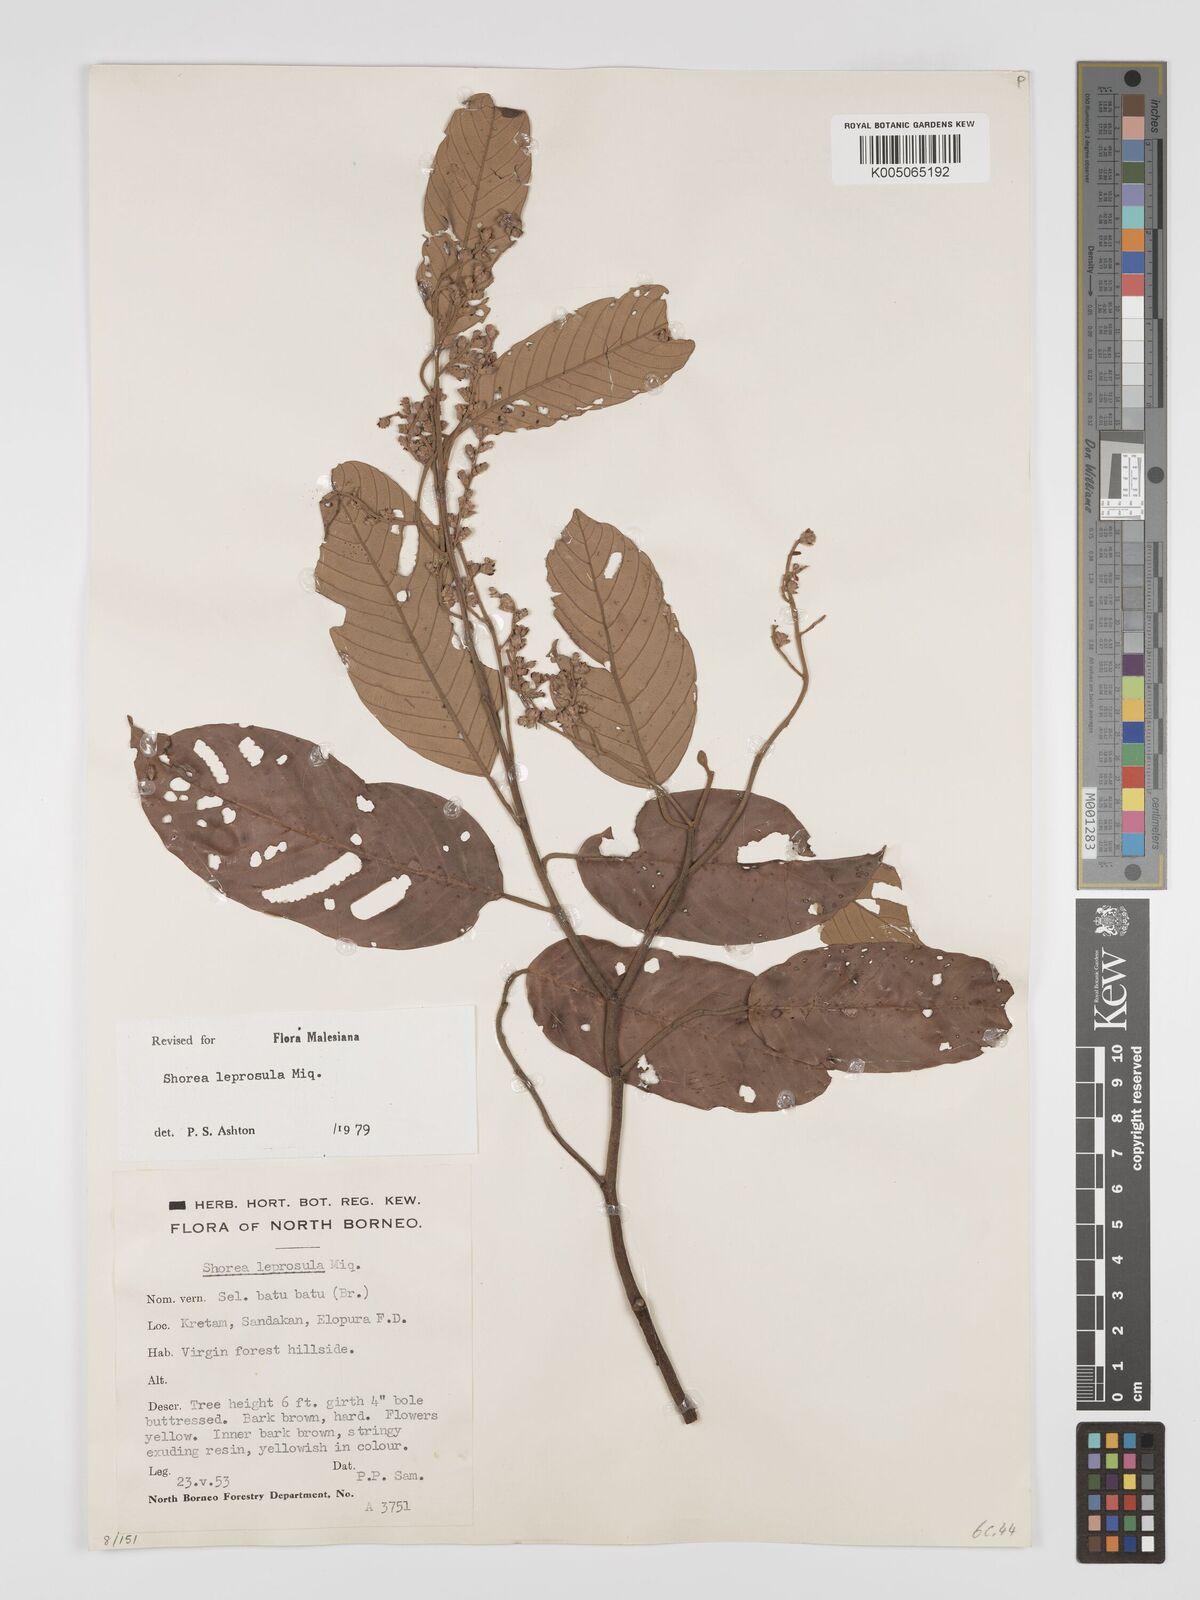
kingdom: Plantae
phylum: Tracheophyta
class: Magnoliopsida
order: Malvales
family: Dipterocarpaceae
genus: Shorea
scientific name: Shorea leprosula
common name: Light red meranti
